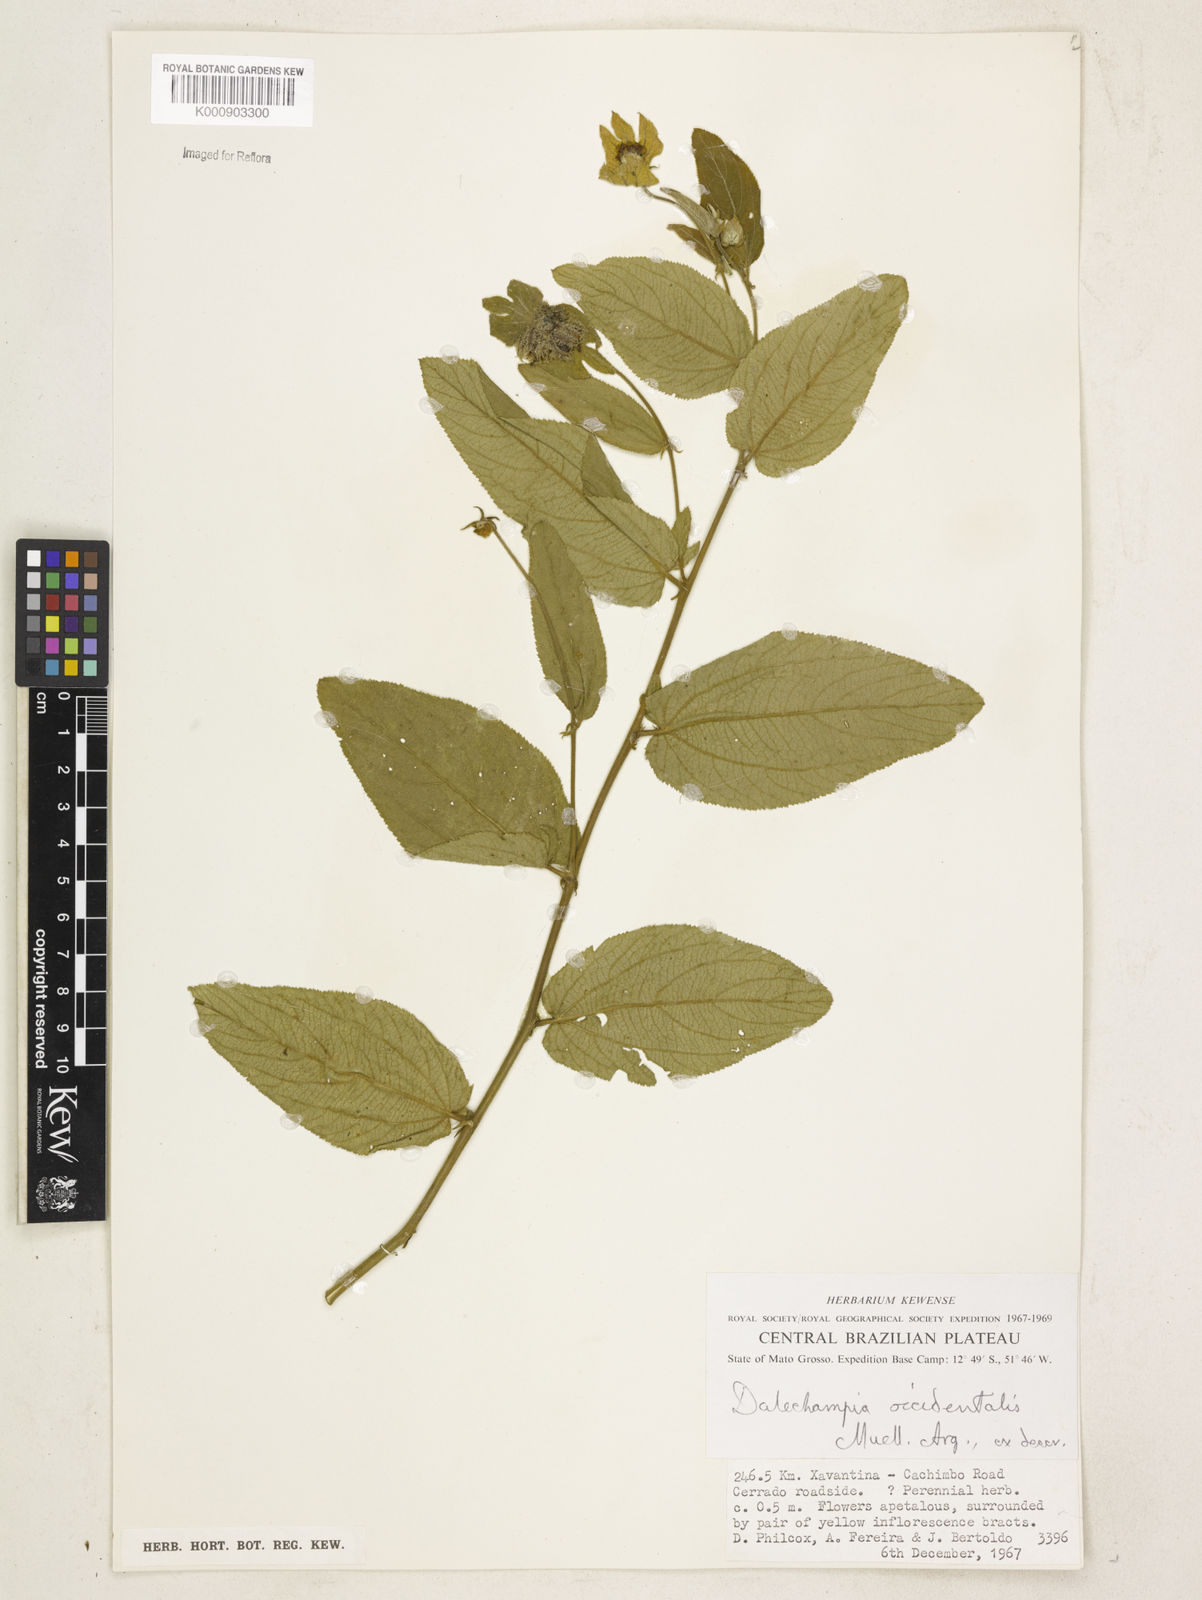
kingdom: Plantae
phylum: Tracheophyta
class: Magnoliopsida
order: Malpighiales
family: Euphorbiaceae
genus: Dalechampia
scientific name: Dalechampia
